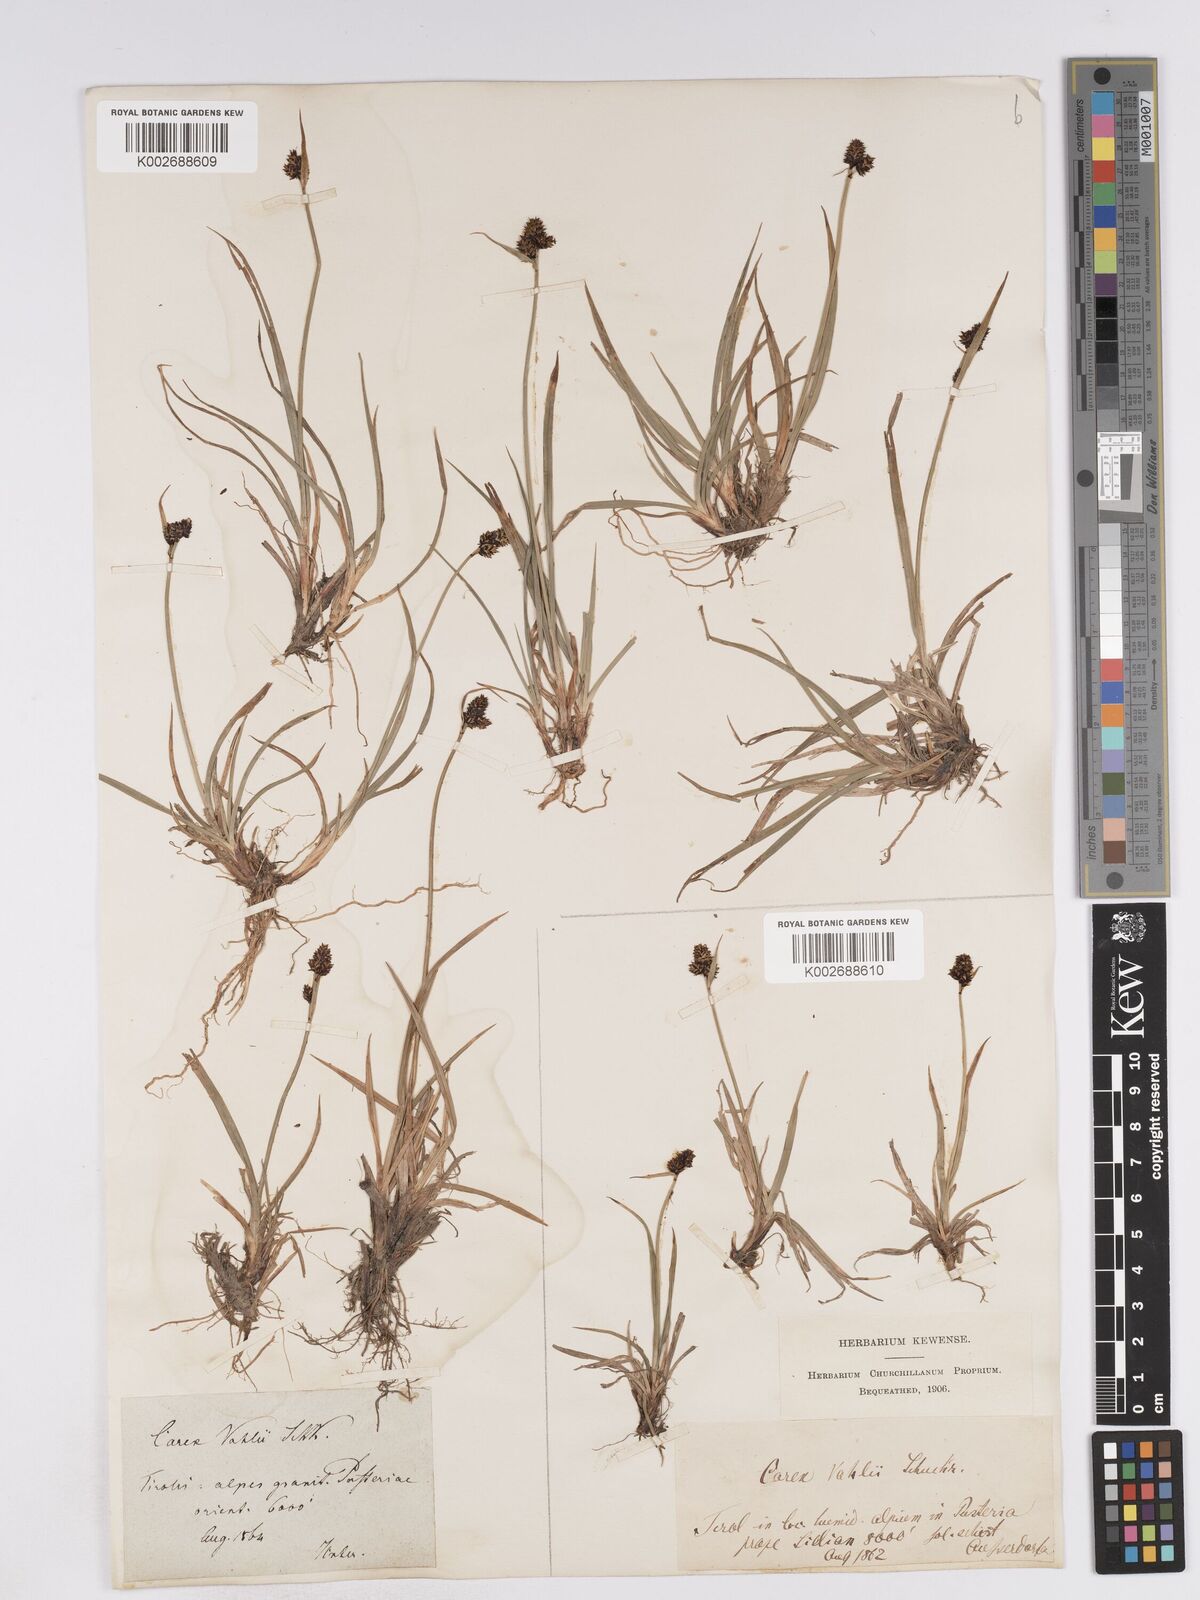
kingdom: Plantae
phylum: Tracheophyta
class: Liliopsida
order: Poales
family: Cyperaceae
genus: Carex
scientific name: Carex norvegica
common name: Close-headed alpine-sedge
